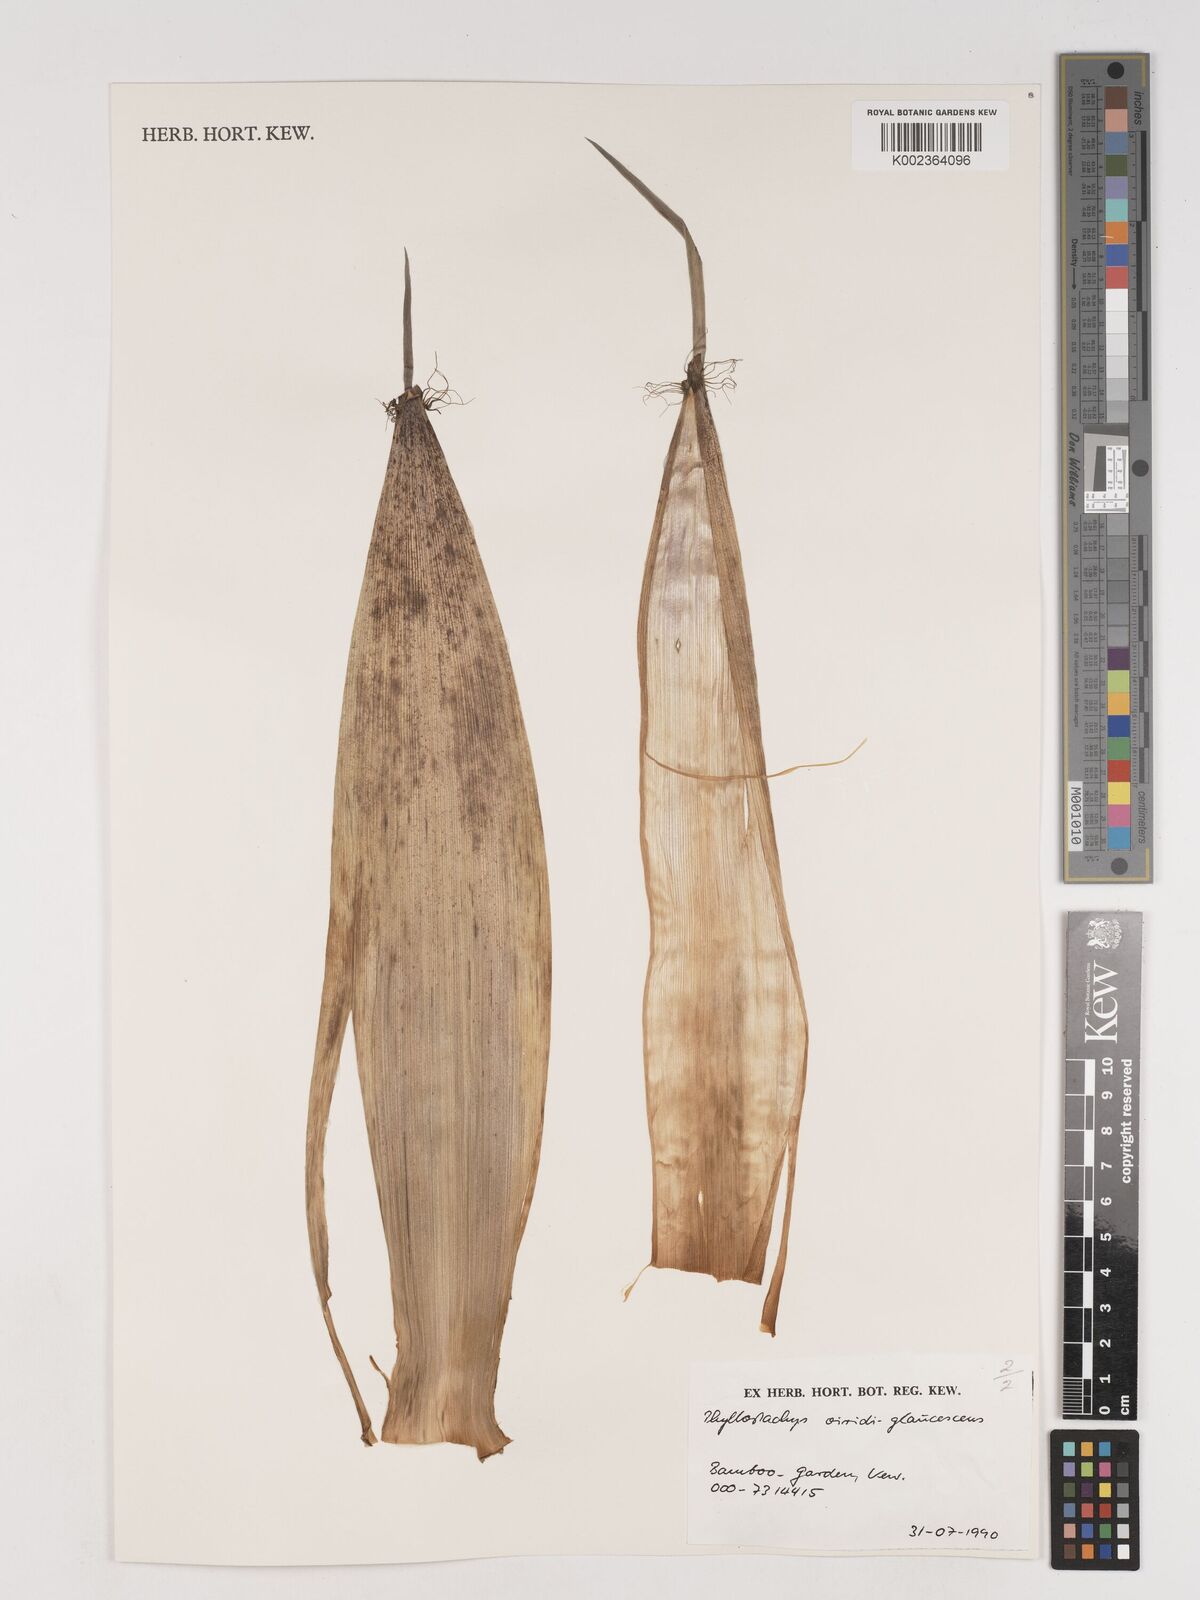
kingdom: Plantae
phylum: Tracheophyta
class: Liliopsida
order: Poales
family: Poaceae
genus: Phyllostachys
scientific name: Phyllostachys viridiglaucescens
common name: Greenwax golden bamboo
